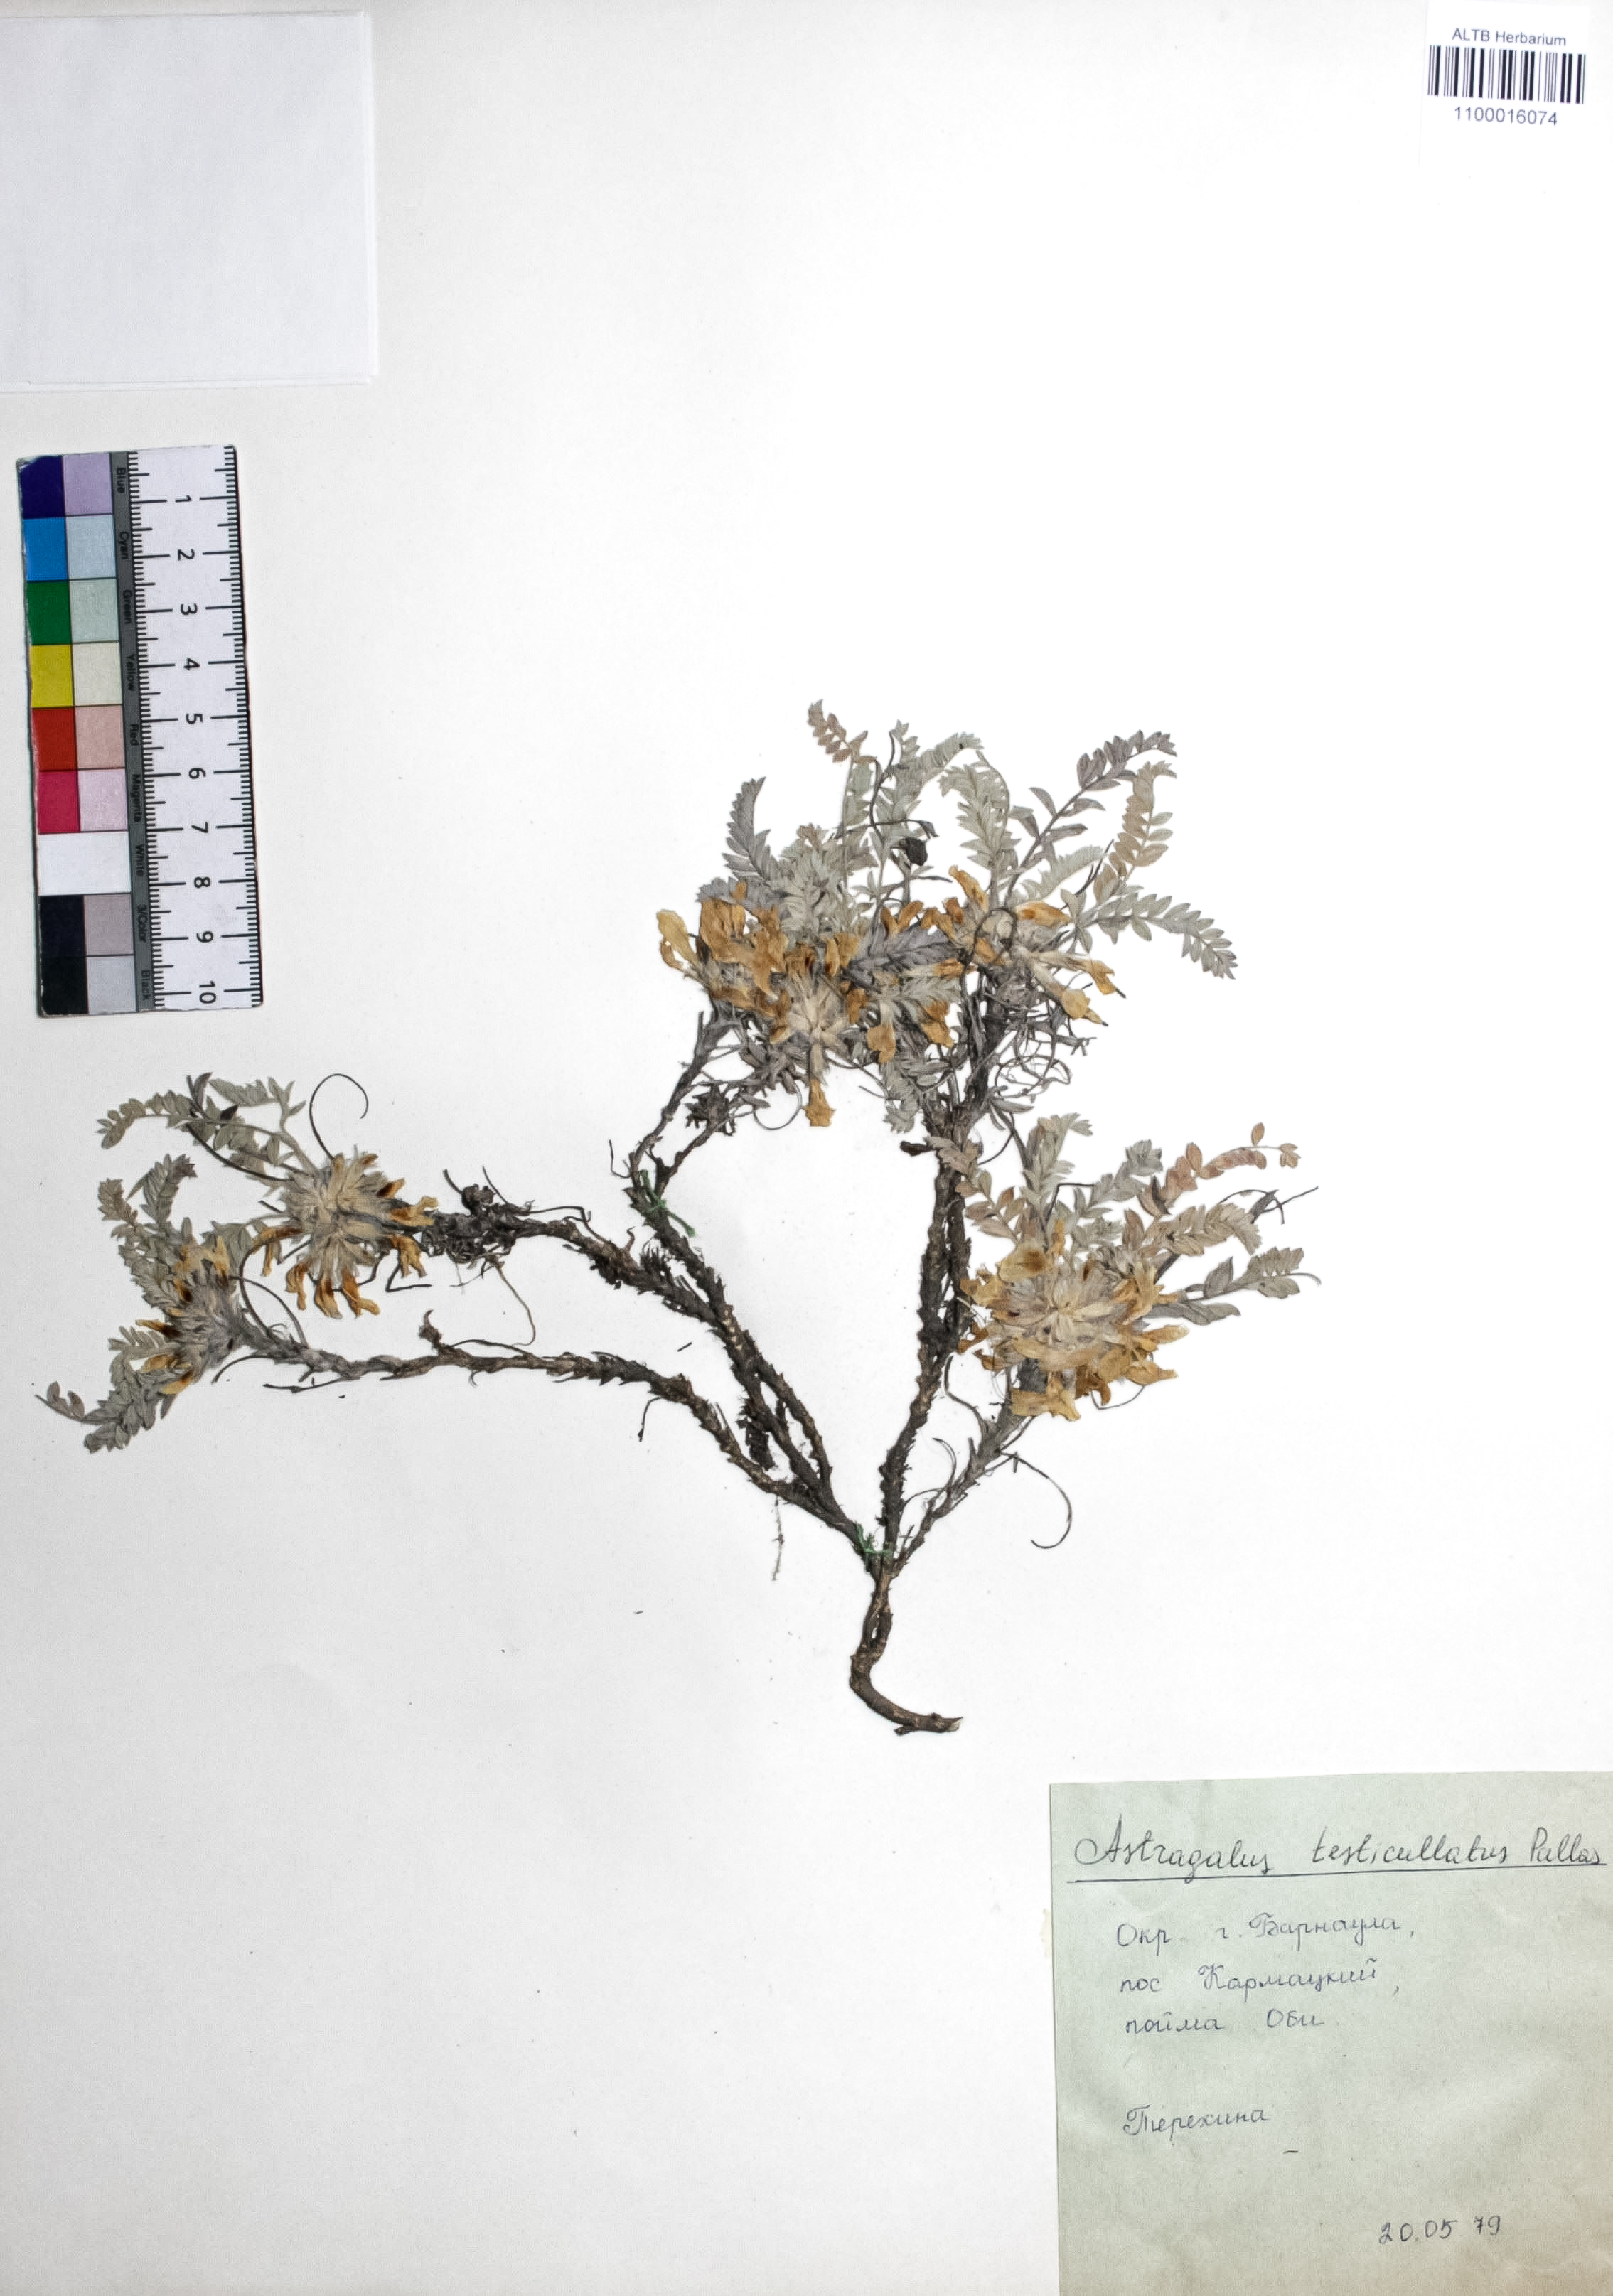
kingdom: Plantae
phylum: Tracheophyta
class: Magnoliopsida
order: Fabales
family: Fabaceae
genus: Astragalus
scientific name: Astragalus testiculatus
